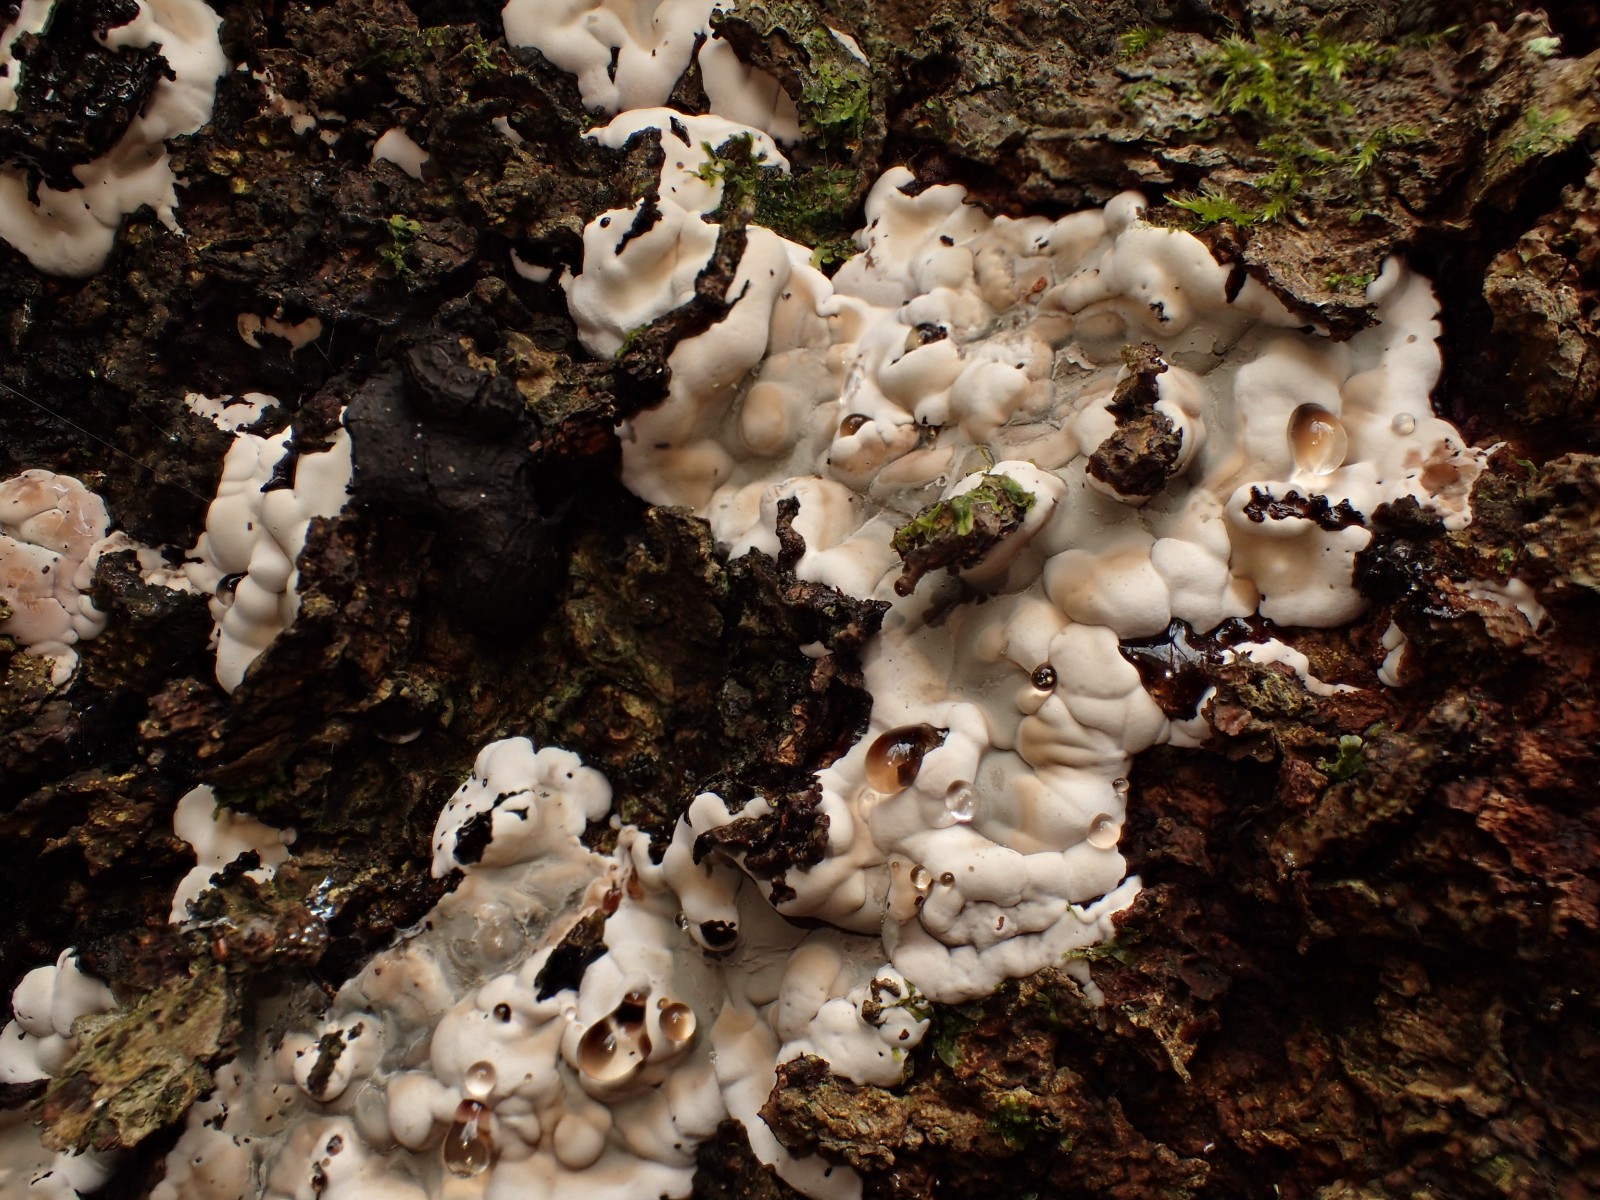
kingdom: Fungi
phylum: Ascomycota
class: Sordariomycetes
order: Xylariales
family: Xylariaceae
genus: Kretzschmaria
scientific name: Kretzschmaria deusta
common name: stor kulsvamp
